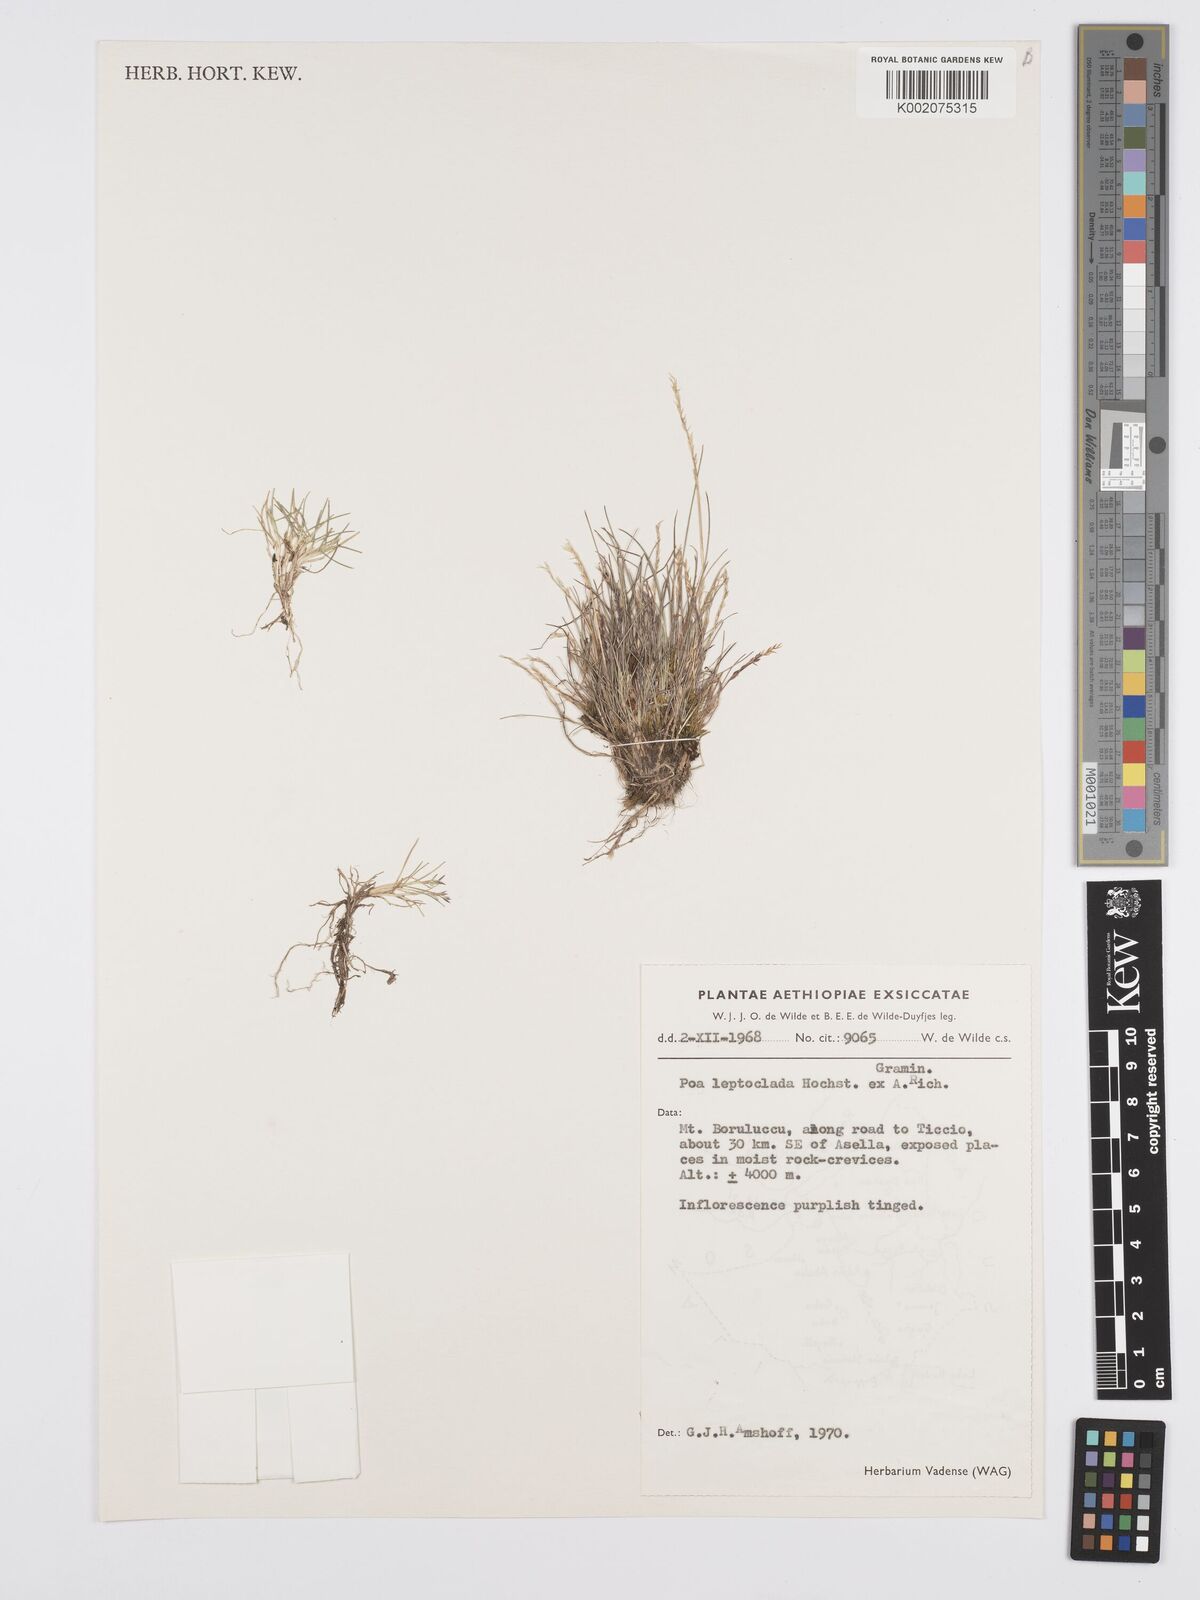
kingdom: Plantae
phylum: Tracheophyta
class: Liliopsida
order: Poales
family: Poaceae
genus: Poa
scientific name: Poa leptoclada
